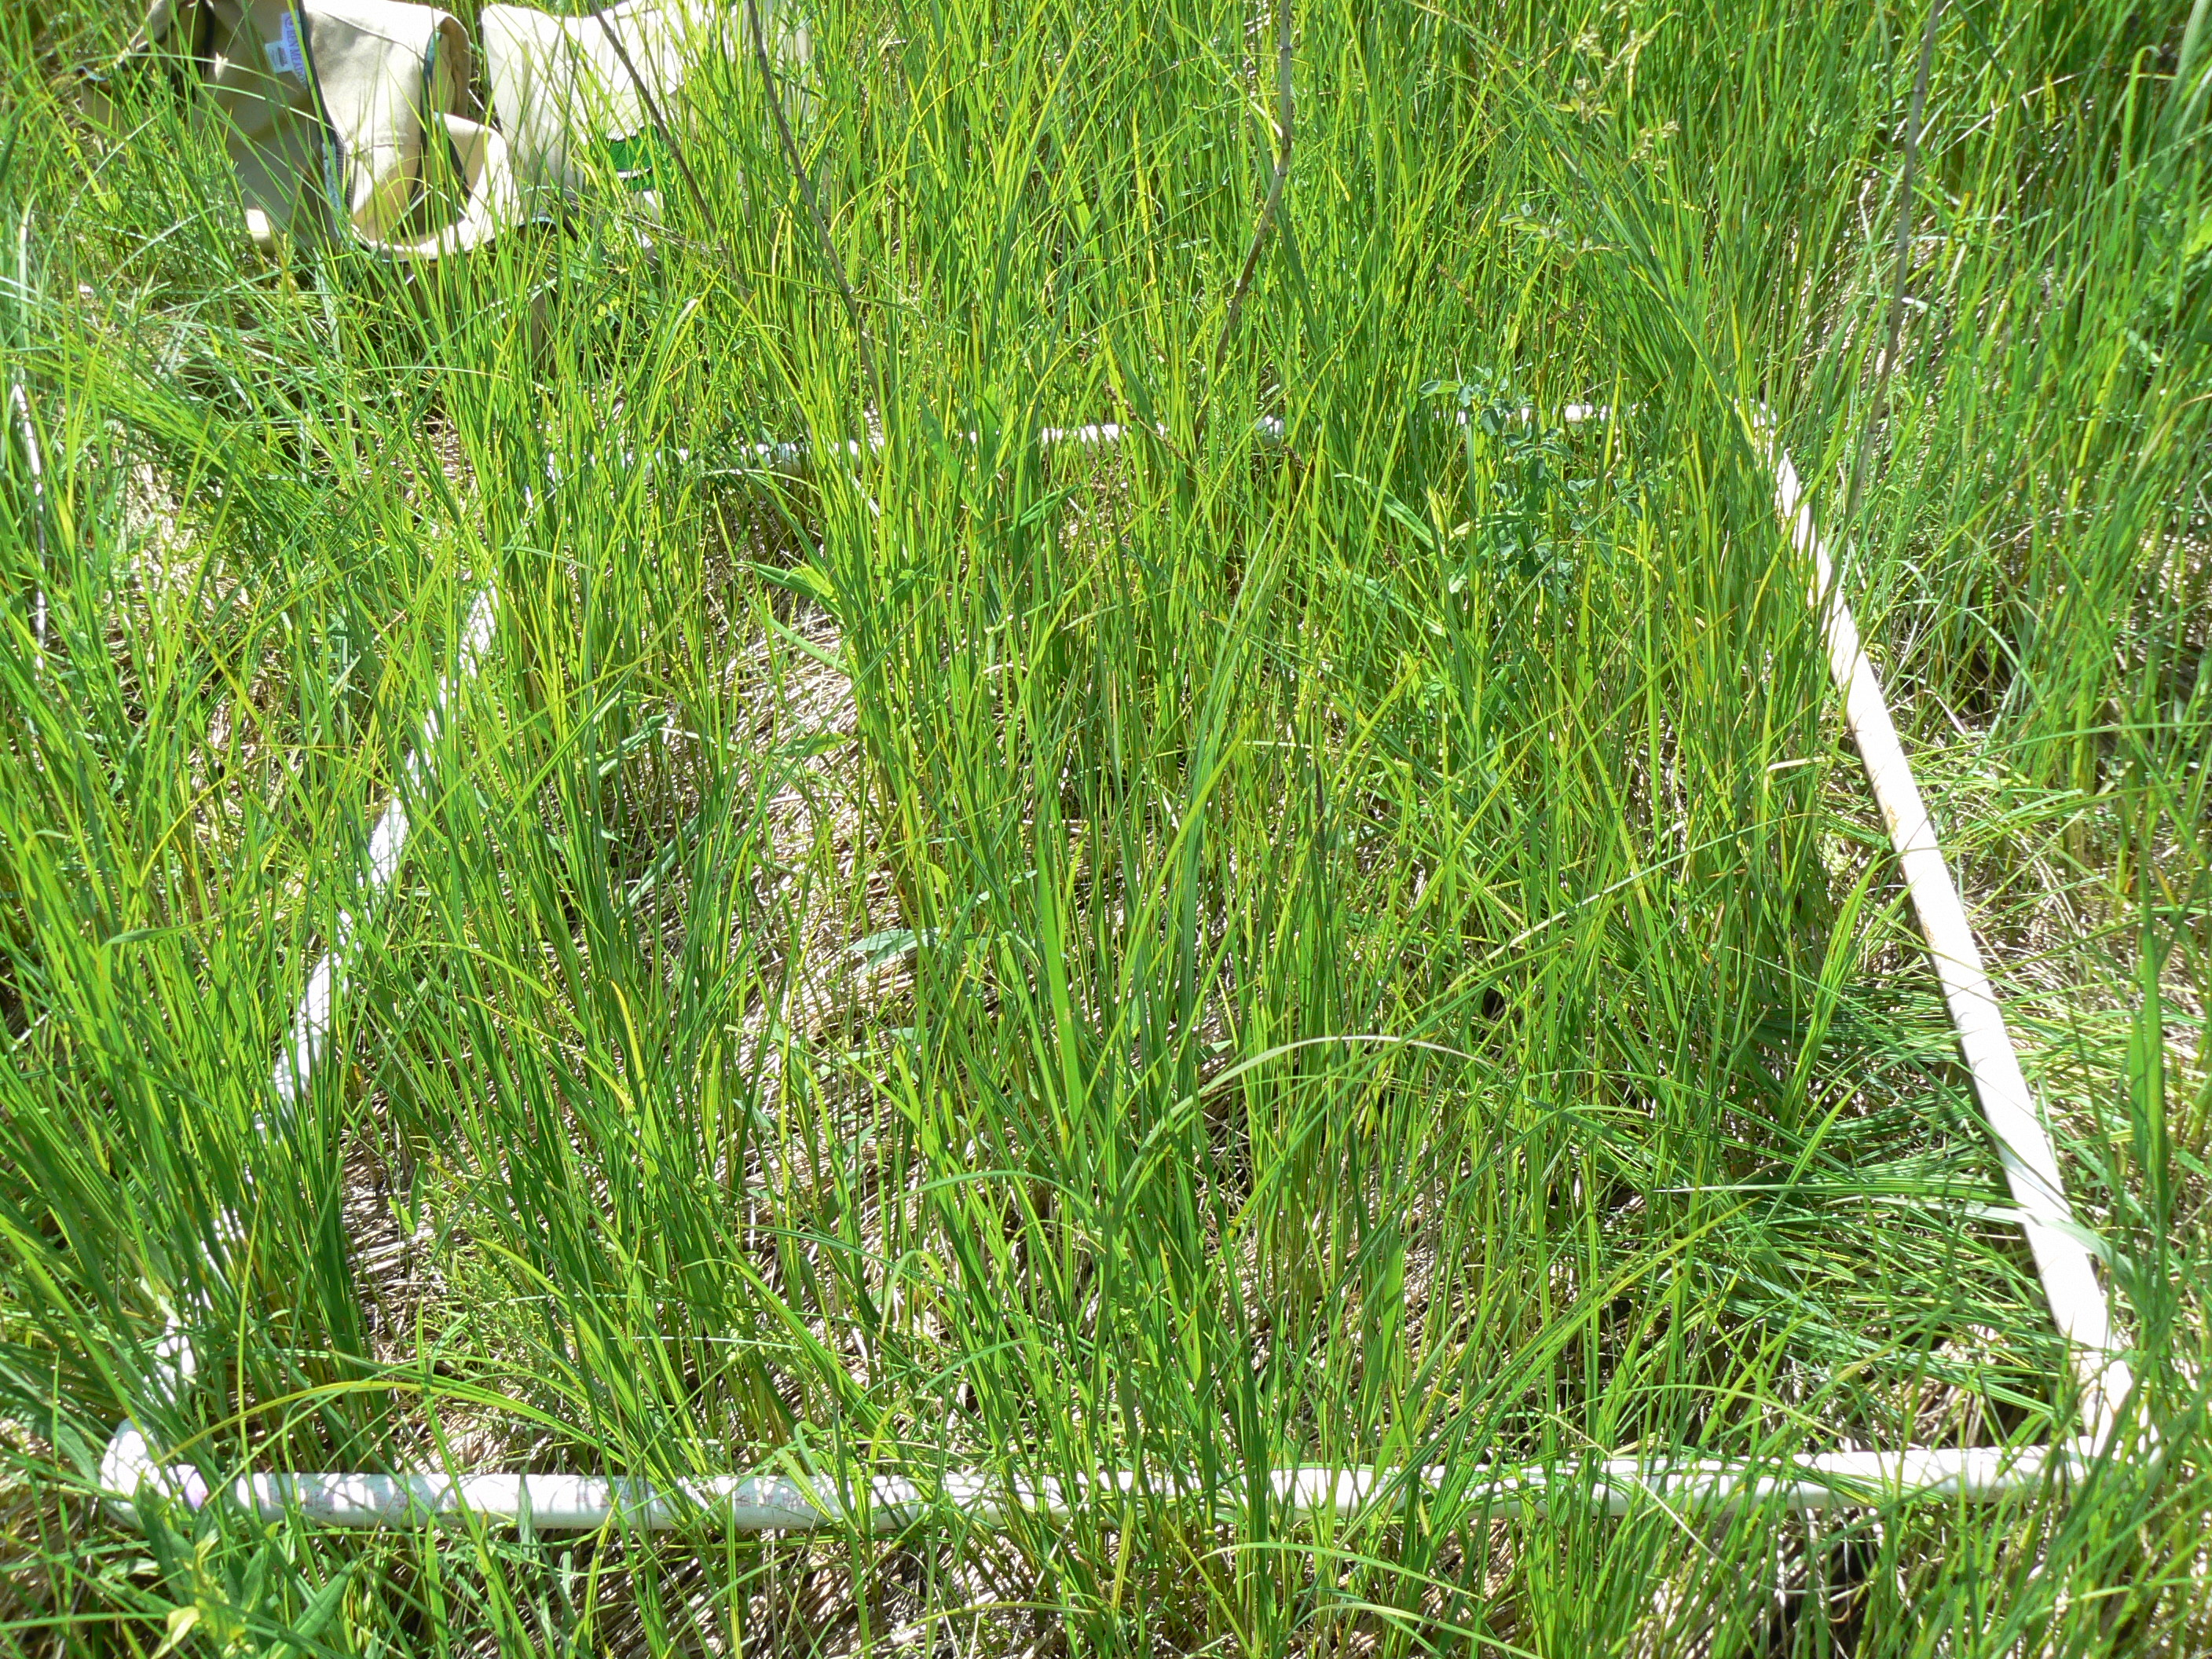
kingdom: Plantae
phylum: Tracheophyta
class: Liliopsida
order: Poales
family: Cyperaceae
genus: Carex
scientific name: Carex prairea
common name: Prairie sedge
